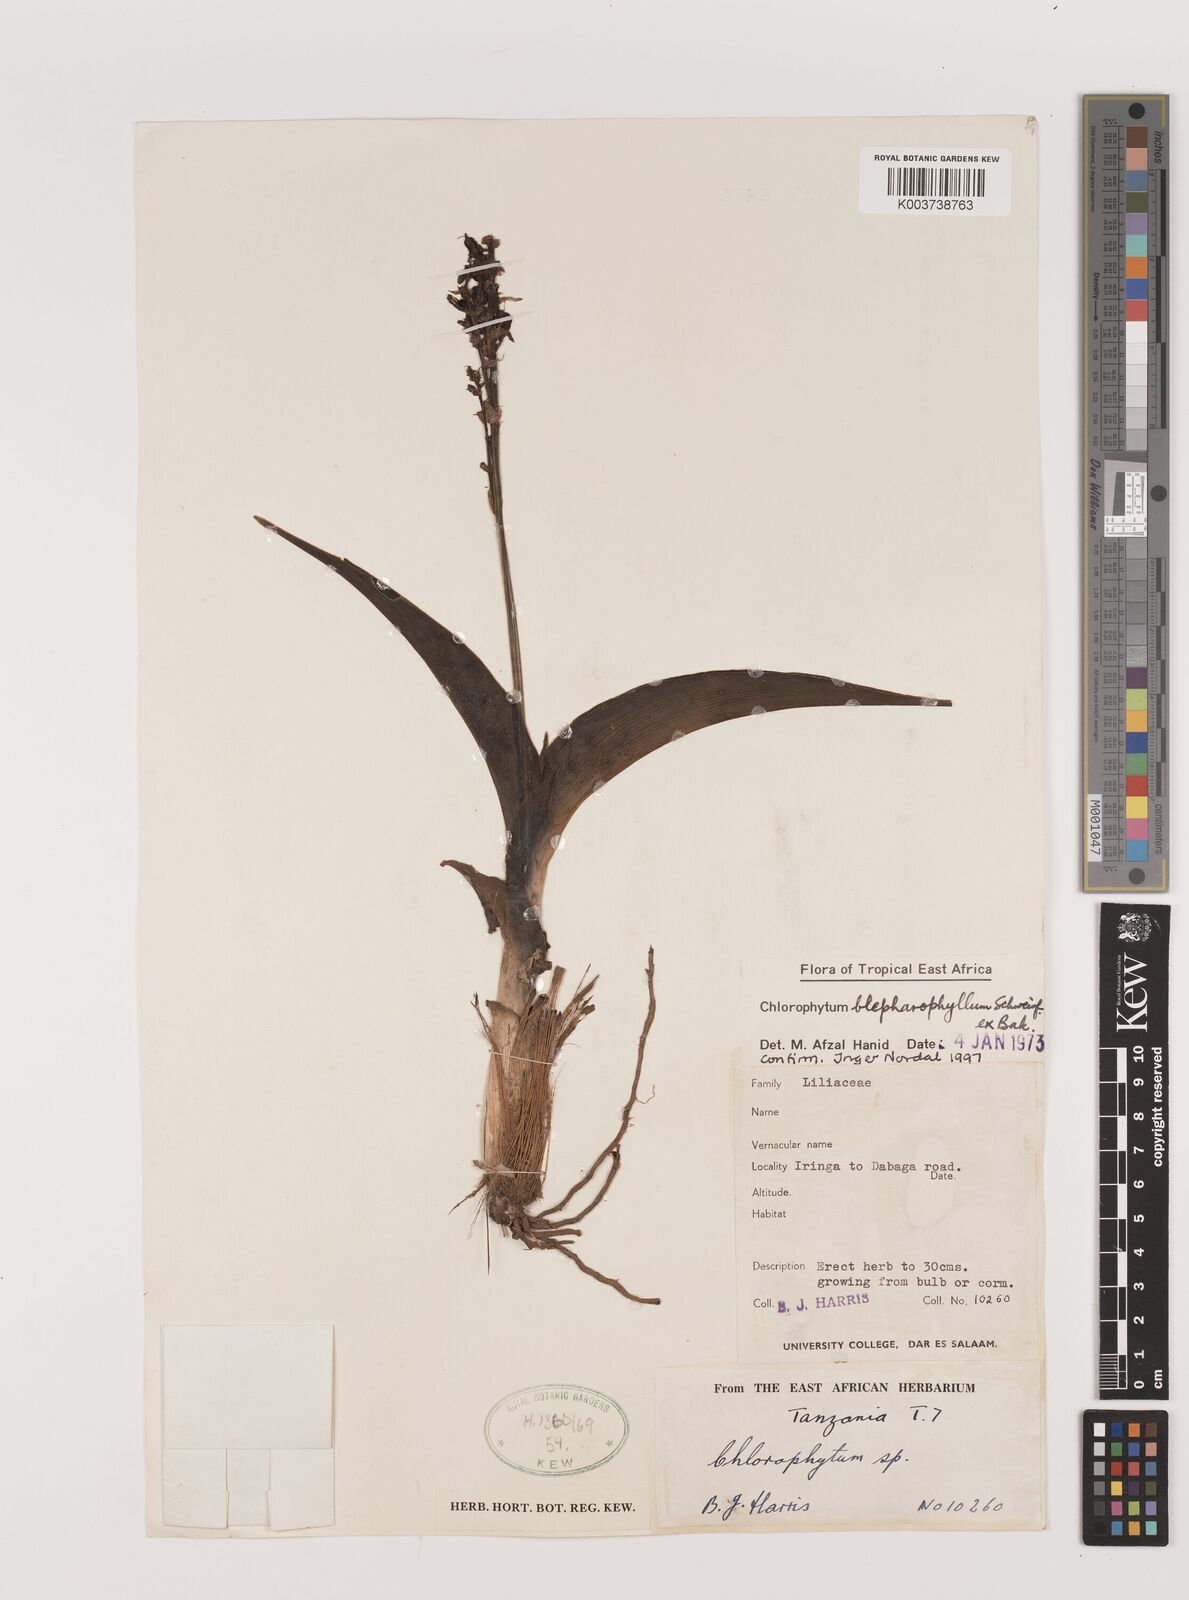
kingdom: Plantae
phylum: Tracheophyta
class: Liliopsida
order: Asparagales
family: Asparagaceae
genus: Chlorophytum
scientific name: Chlorophytum blepharophyllum
